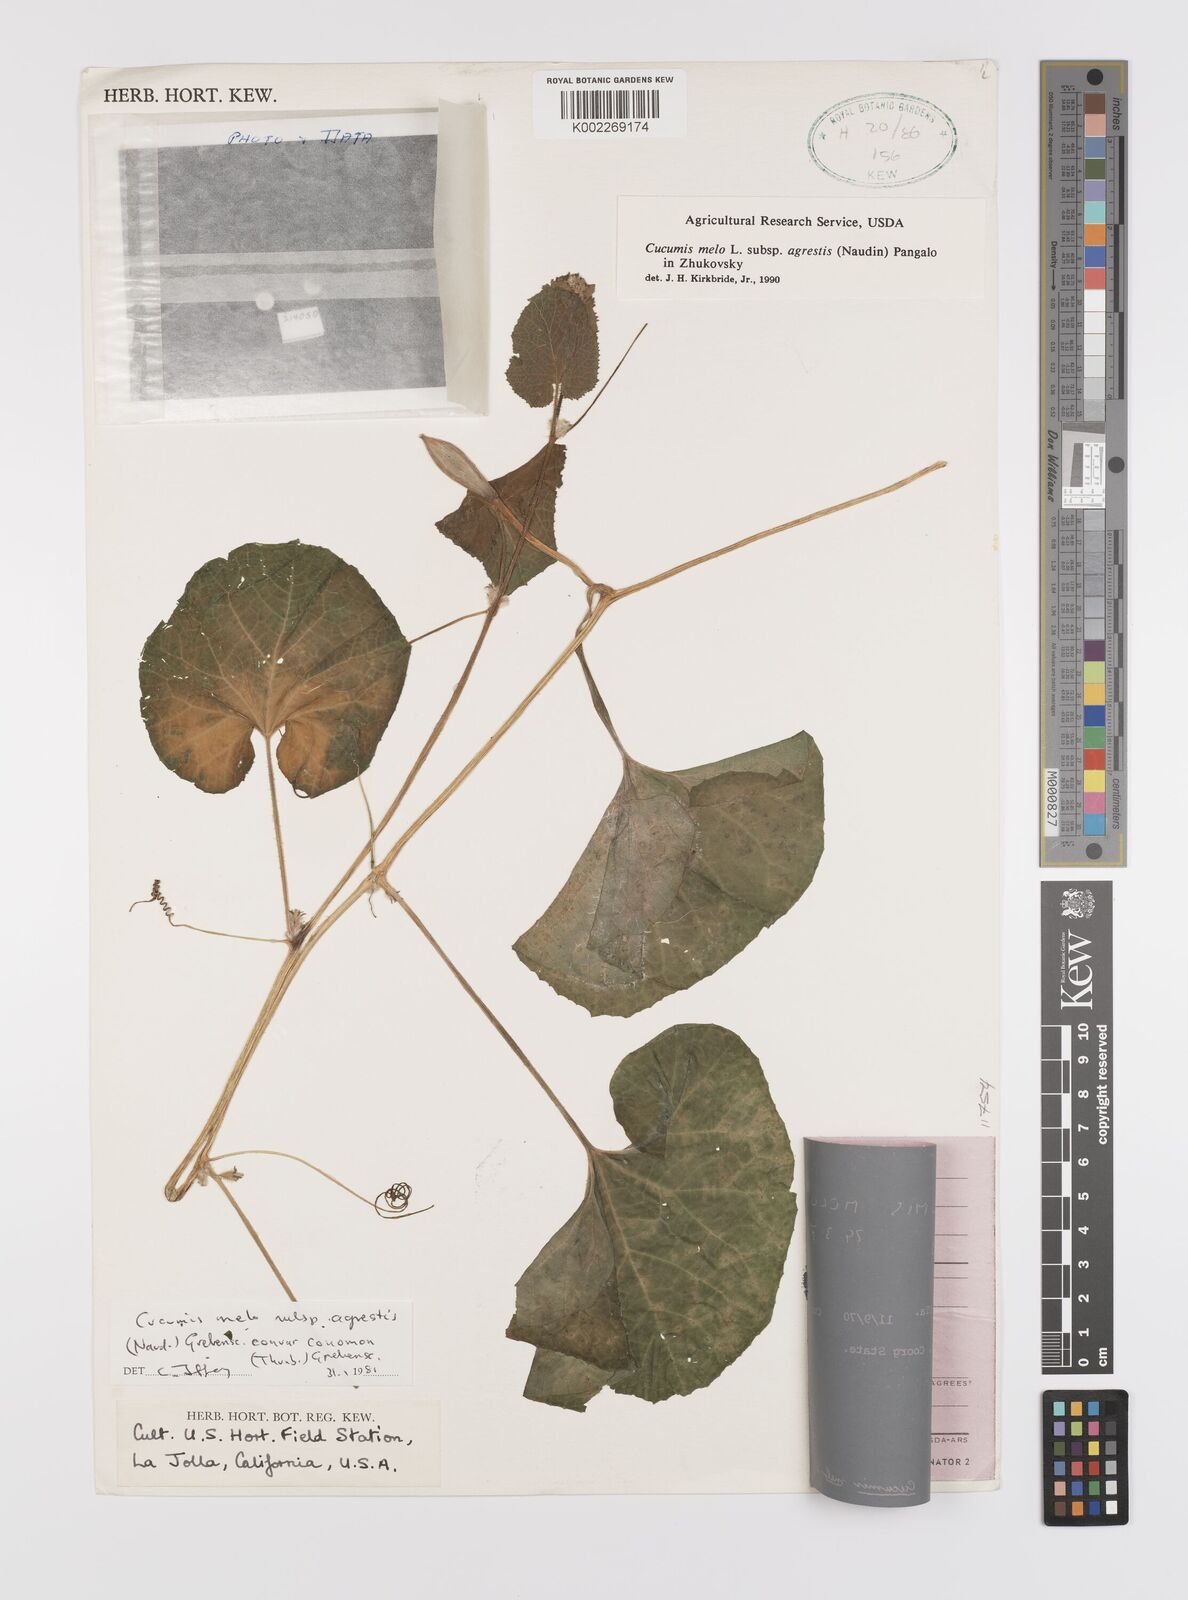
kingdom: Plantae
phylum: Tracheophyta
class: Magnoliopsida
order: Cucurbitales
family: Cucurbitaceae
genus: Cucumis
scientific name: Cucumis melo
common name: Melon
